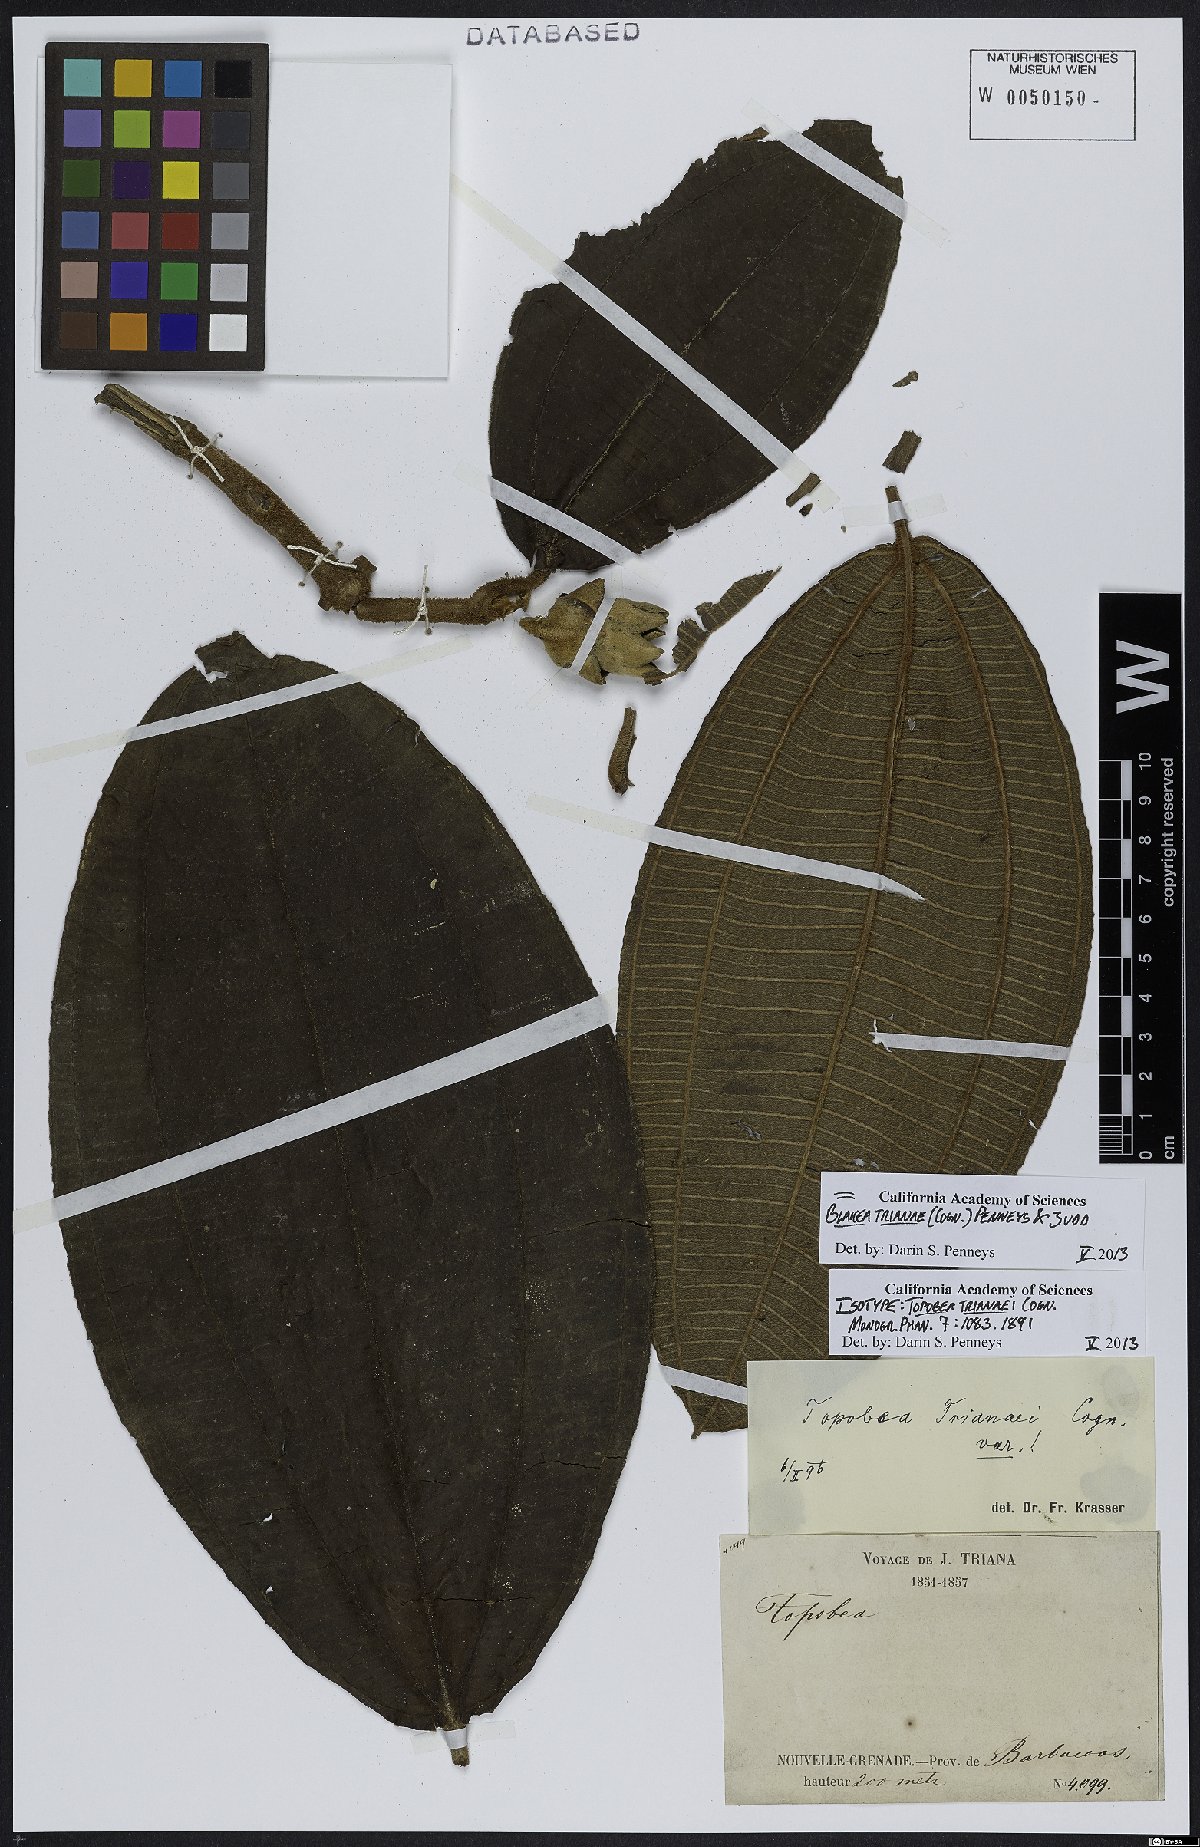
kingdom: Plantae
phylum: Tracheophyta
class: Magnoliopsida
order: Myrtales
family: Melastomataceae
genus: Blakea
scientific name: Blakea trianae
